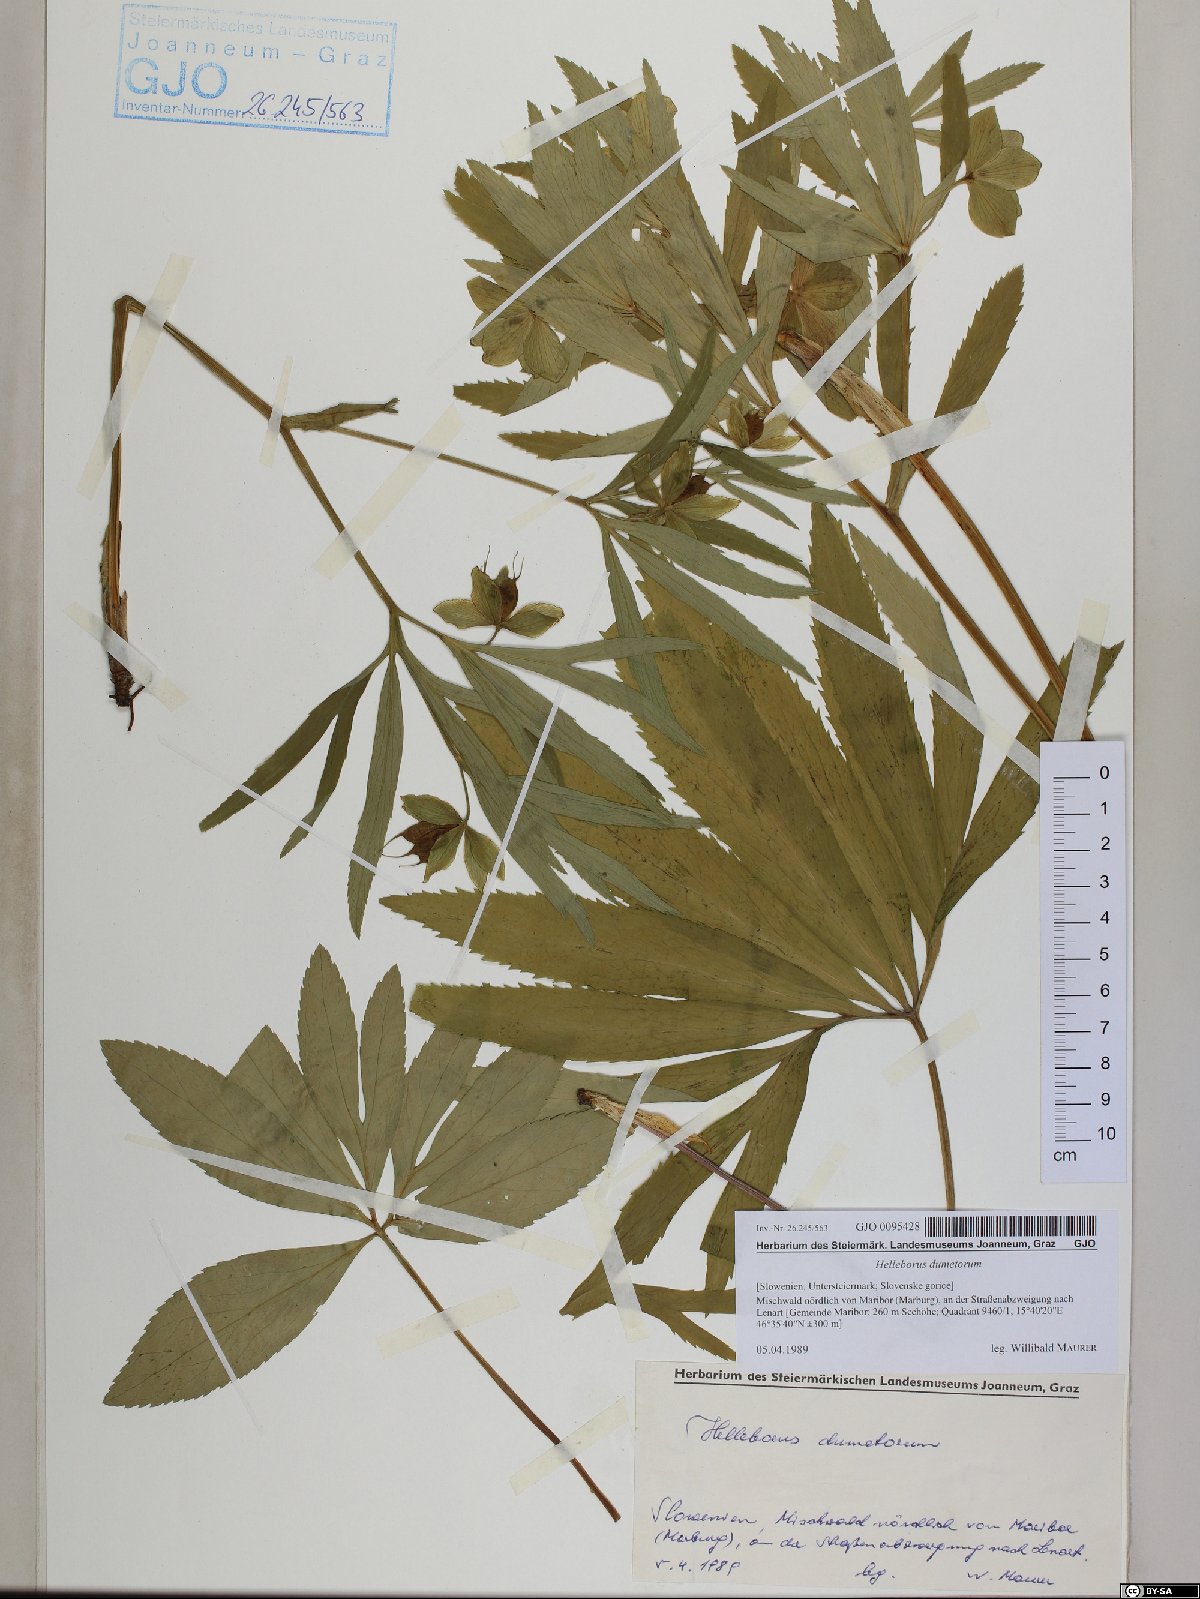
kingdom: Plantae
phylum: Tracheophyta
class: Magnoliopsida
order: Ranunculales
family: Ranunculaceae
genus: Helleborus
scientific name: Helleborus dumetorum
